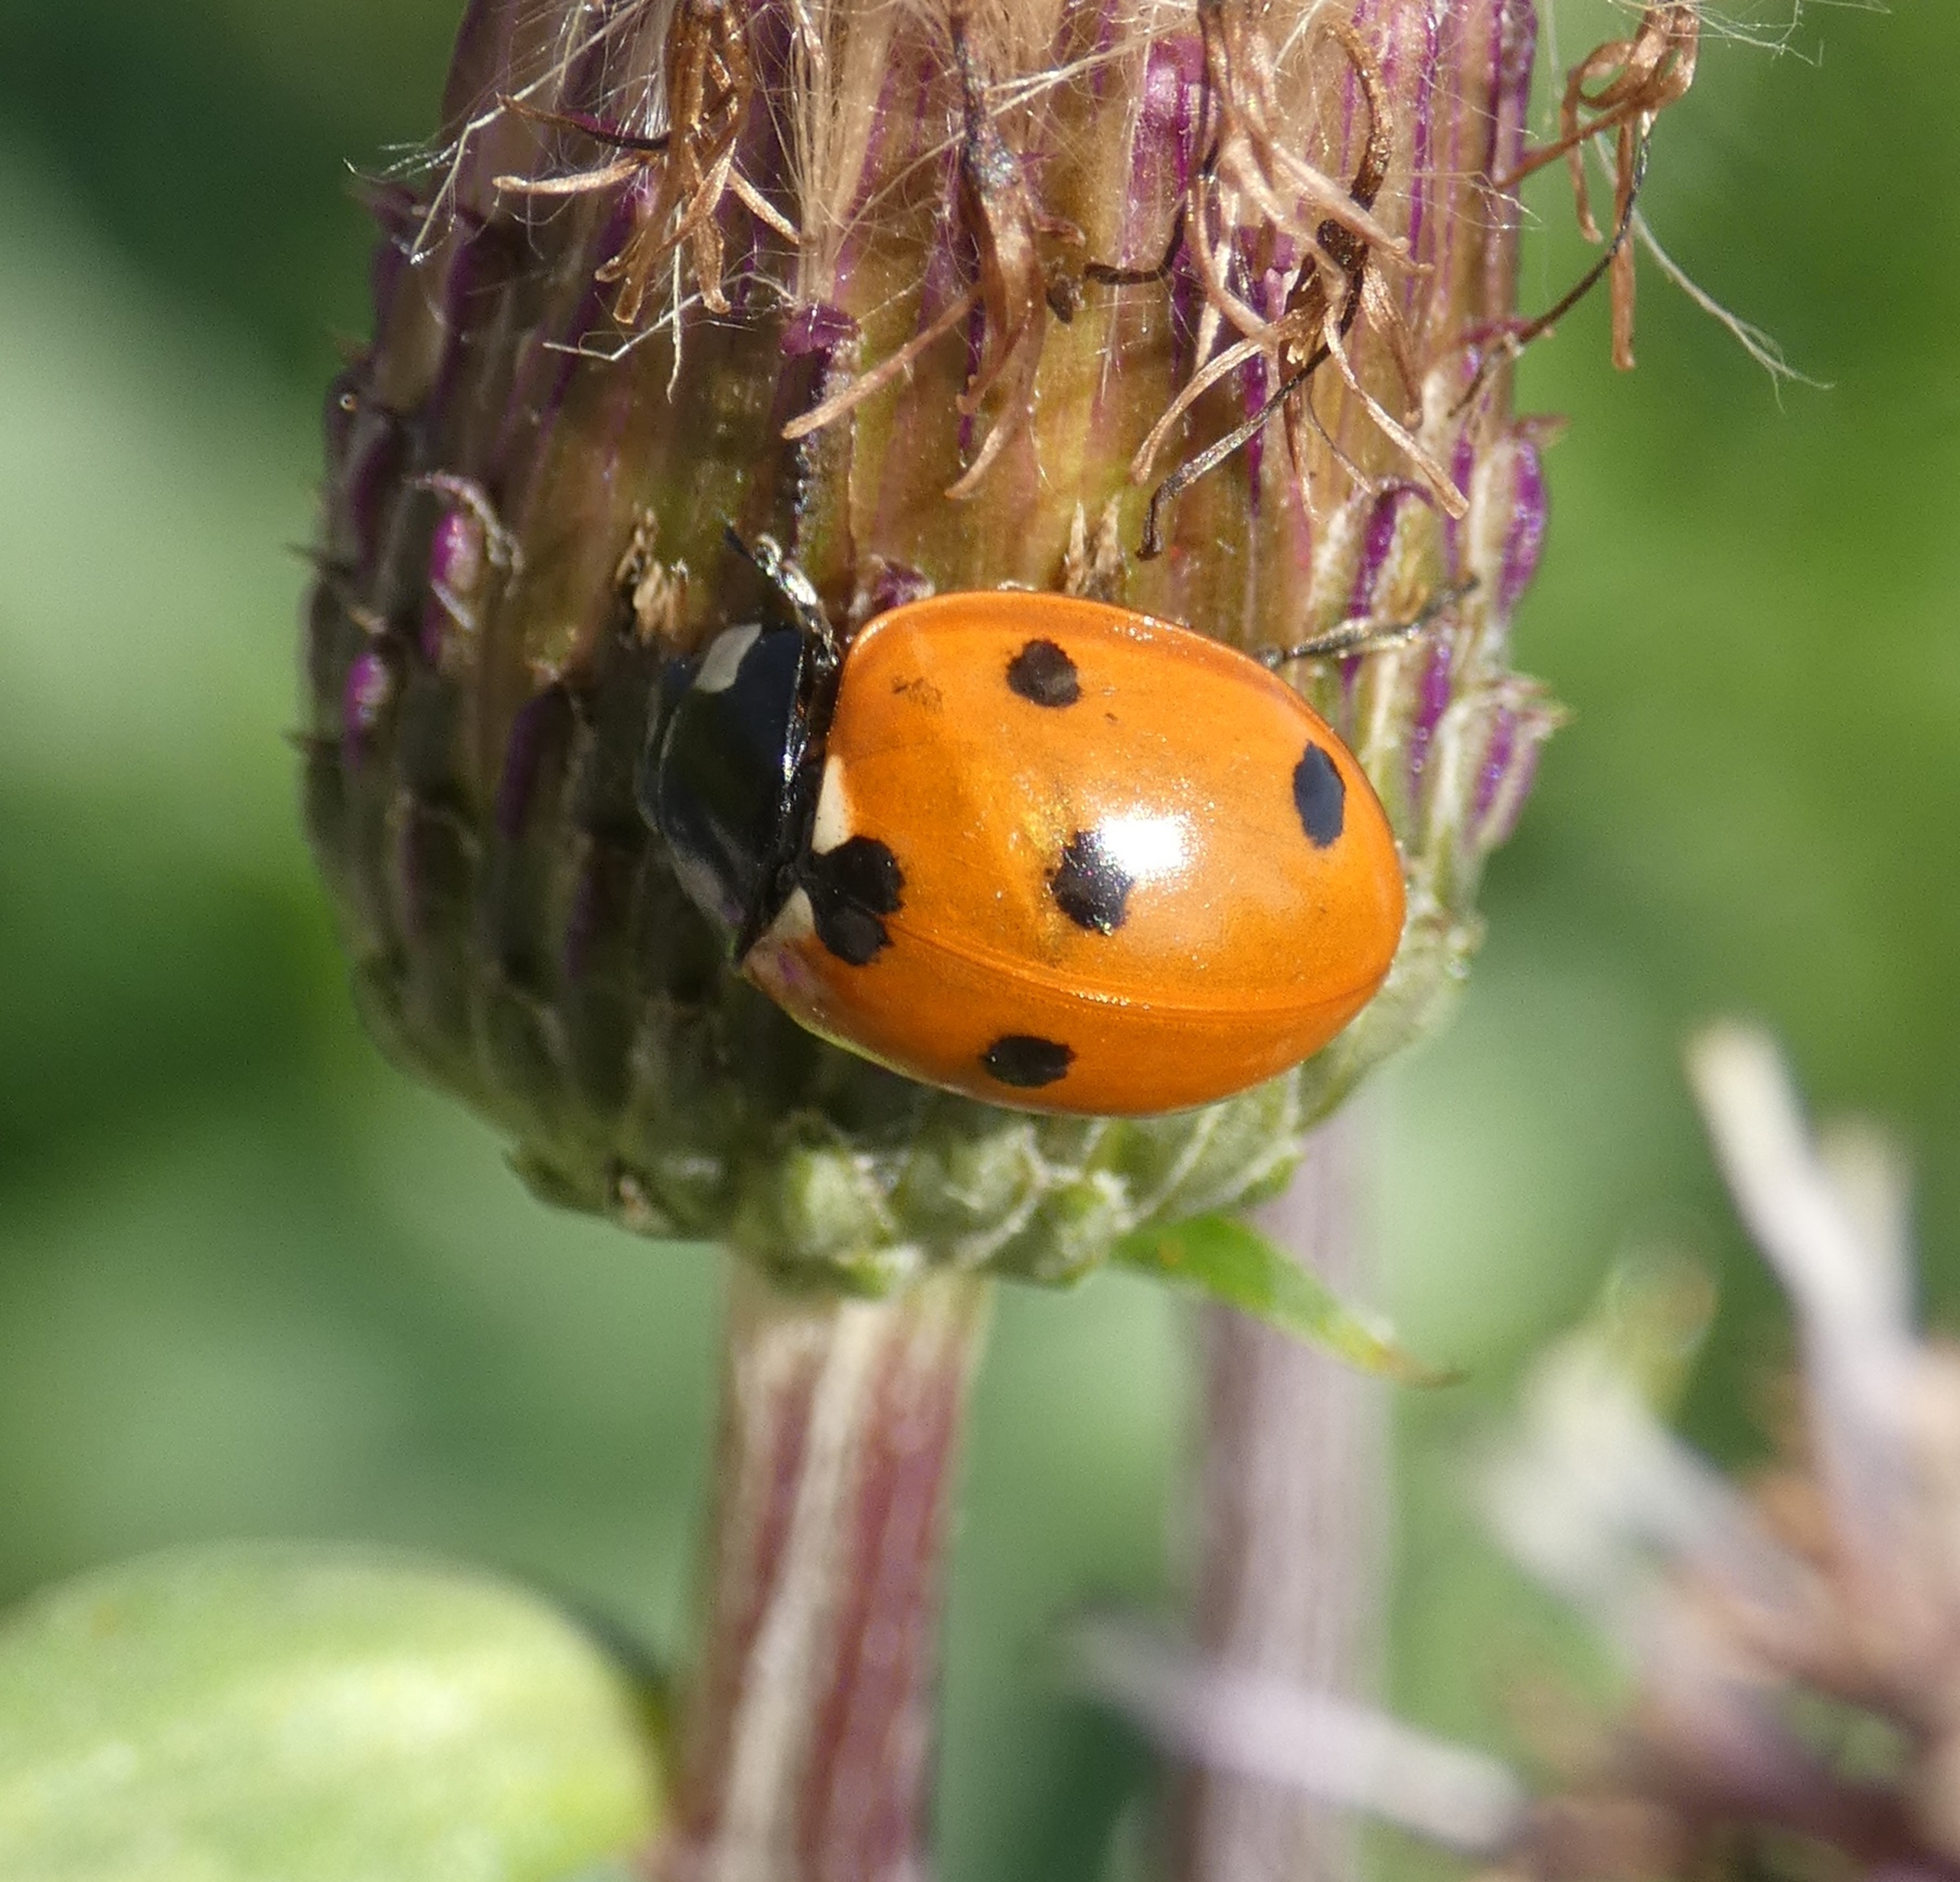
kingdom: Animalia
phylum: Arthropoda
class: Insecta
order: Coleoptera
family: Coccinellidae
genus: Coccinella
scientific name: Coccinella septempunctata
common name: Syvplettet mariehøne
